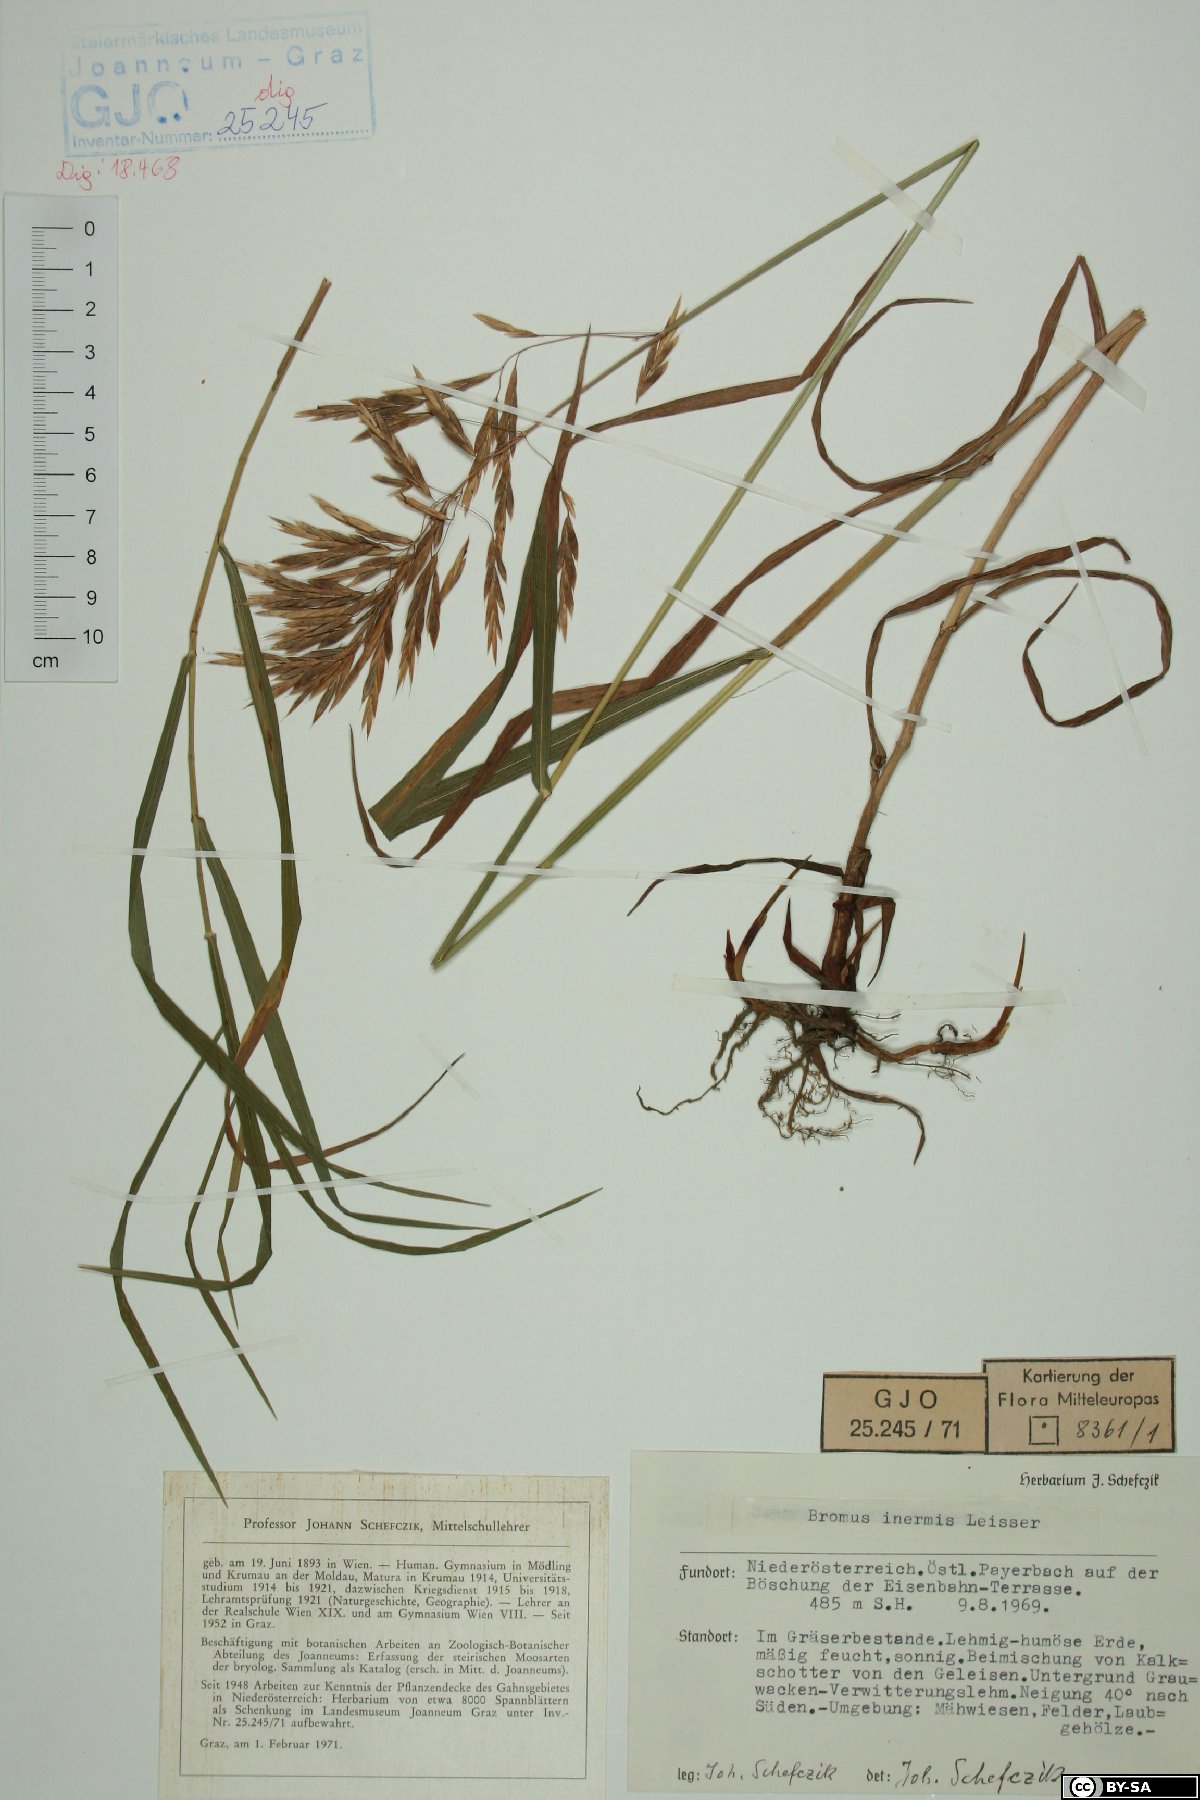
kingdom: Plantae
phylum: Tracheophyta
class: Liliopsida
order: Poales
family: Poaceae
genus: Bromus
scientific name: Bromus inermis
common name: Smooth brome
